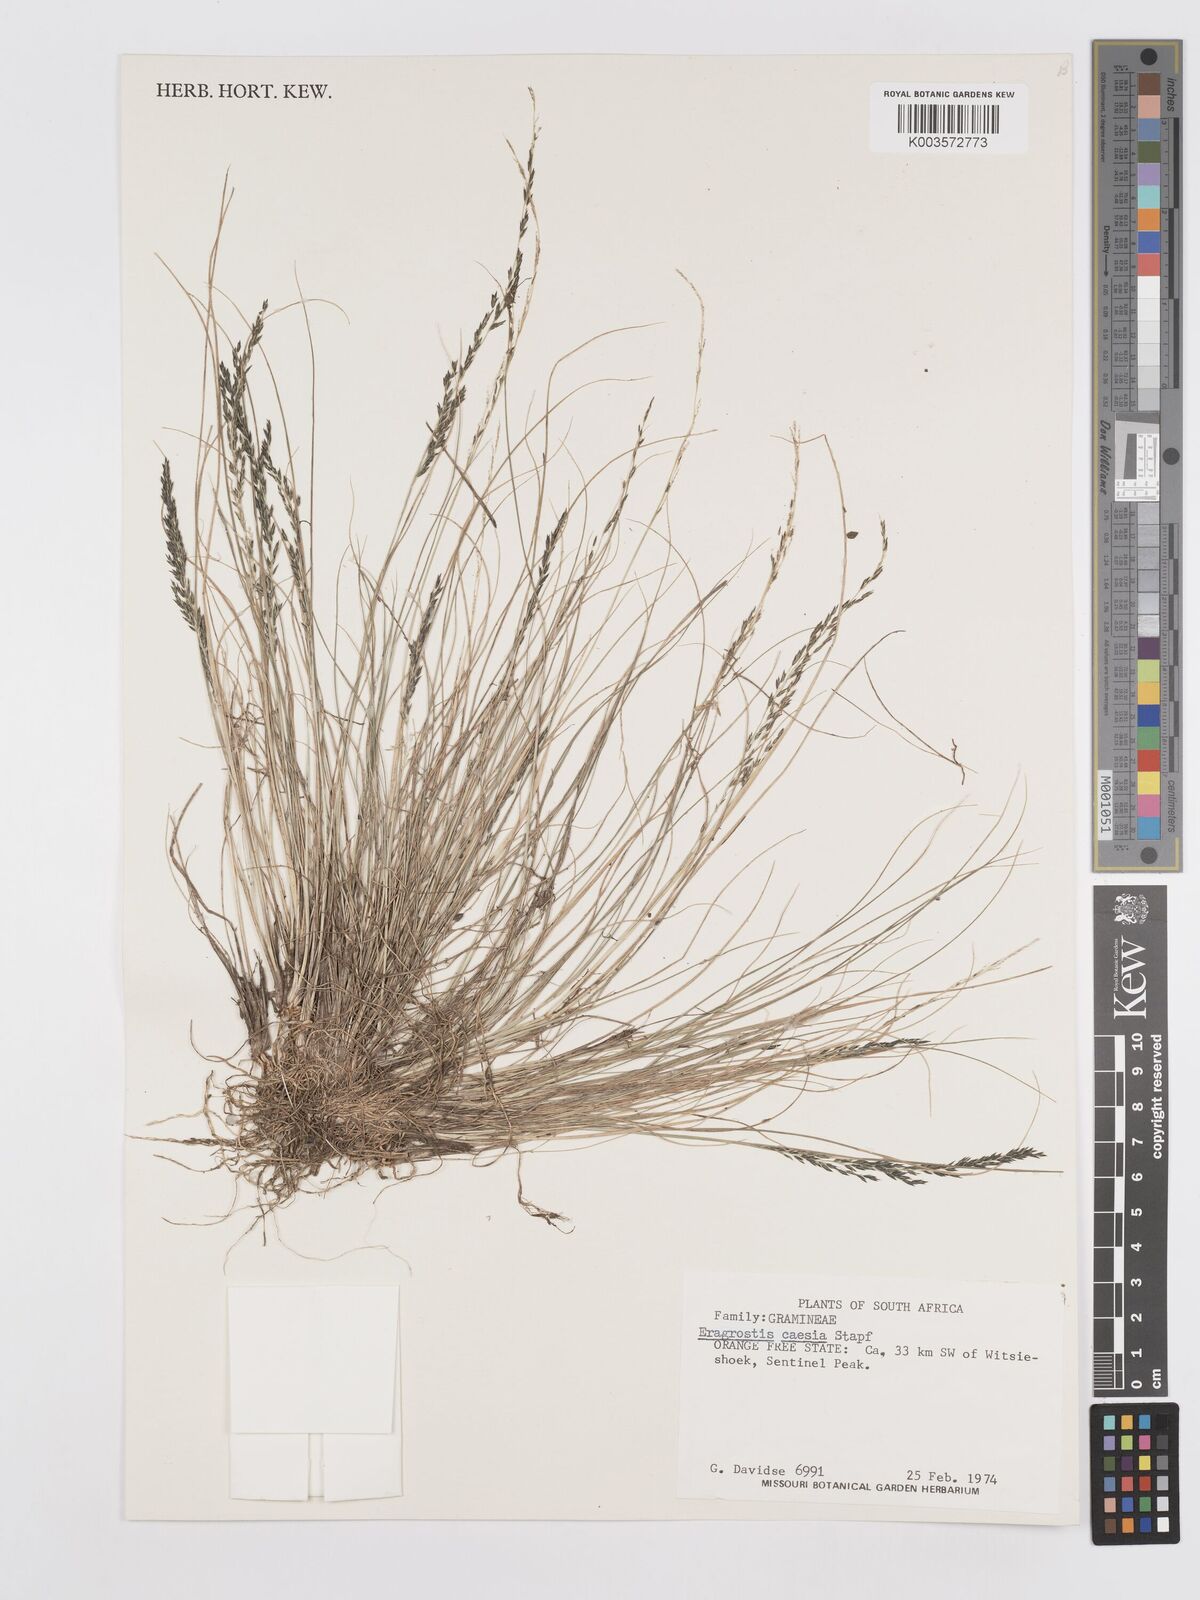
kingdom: Plantae
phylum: Tracheophyta
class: Liliopsida
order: Poales
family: Poaceae
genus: Eragrostis
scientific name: Eragrostis caesia
